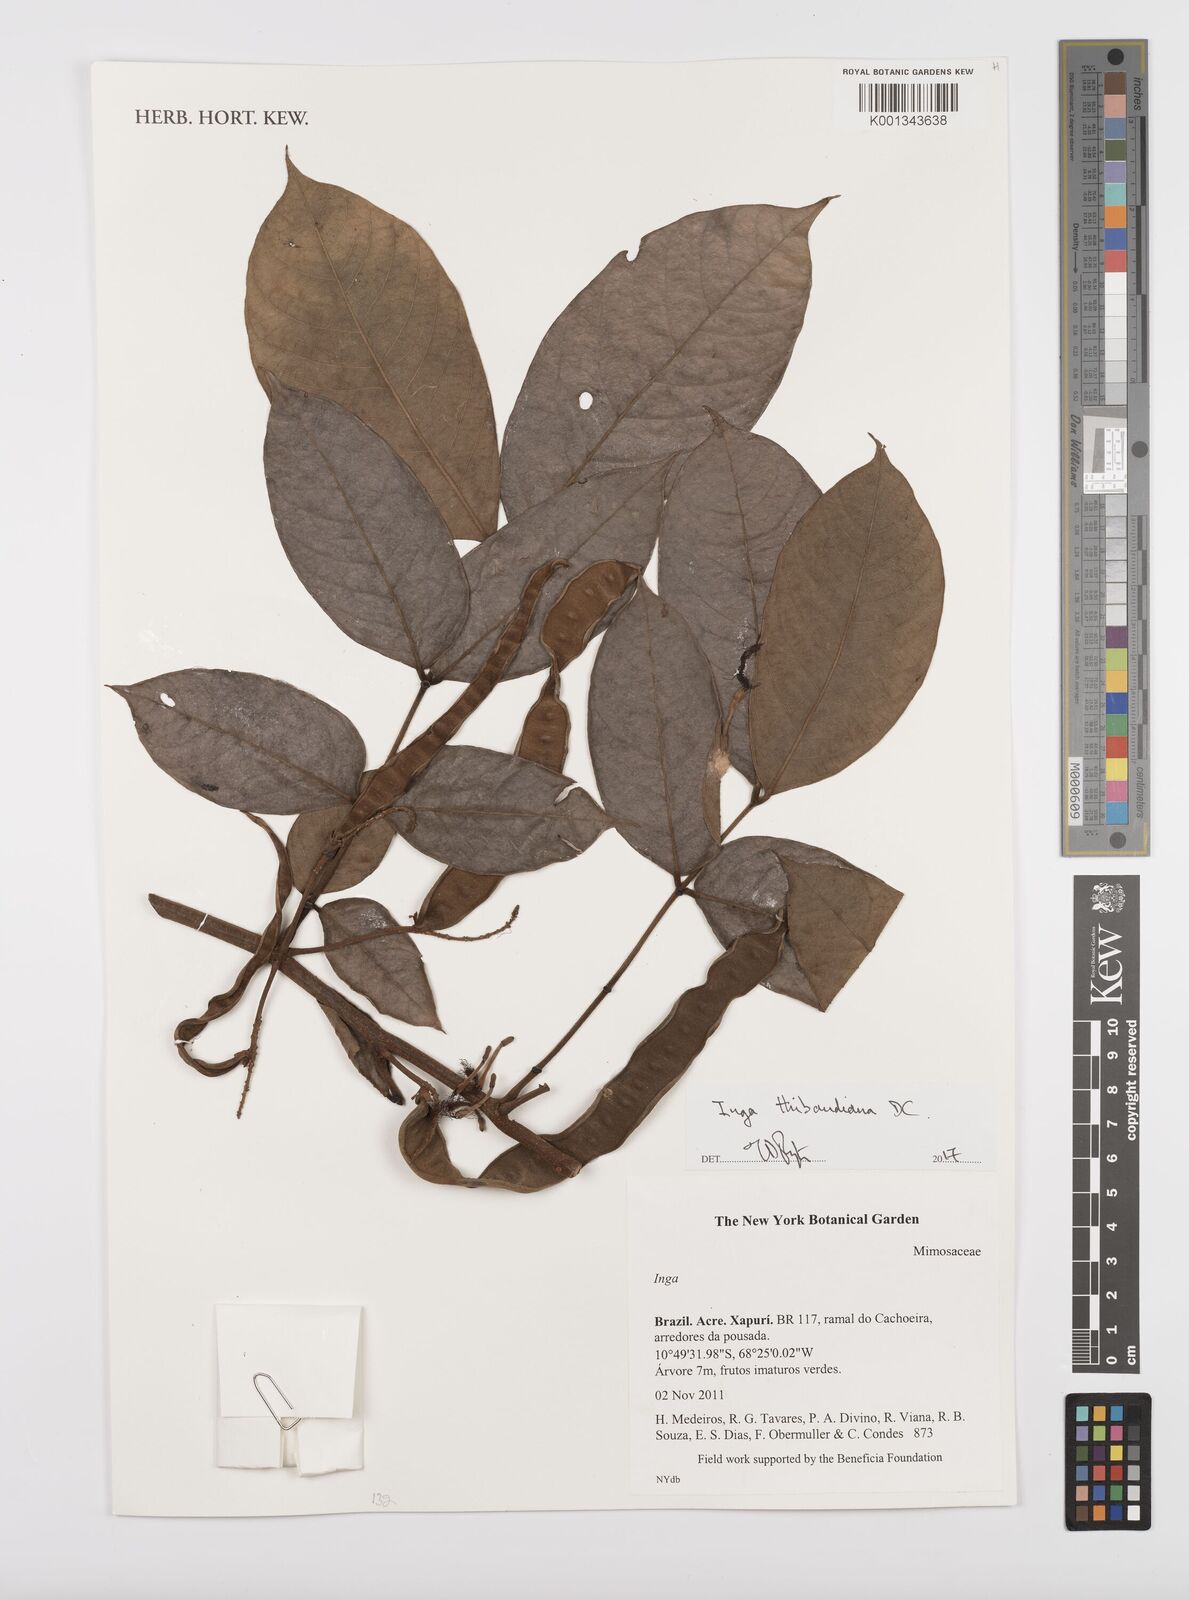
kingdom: Plantae
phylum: Tracheophyta
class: Magnoliopsida
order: Fabales
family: Fabaceae
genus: Inga
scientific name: Inga thibaudiana
